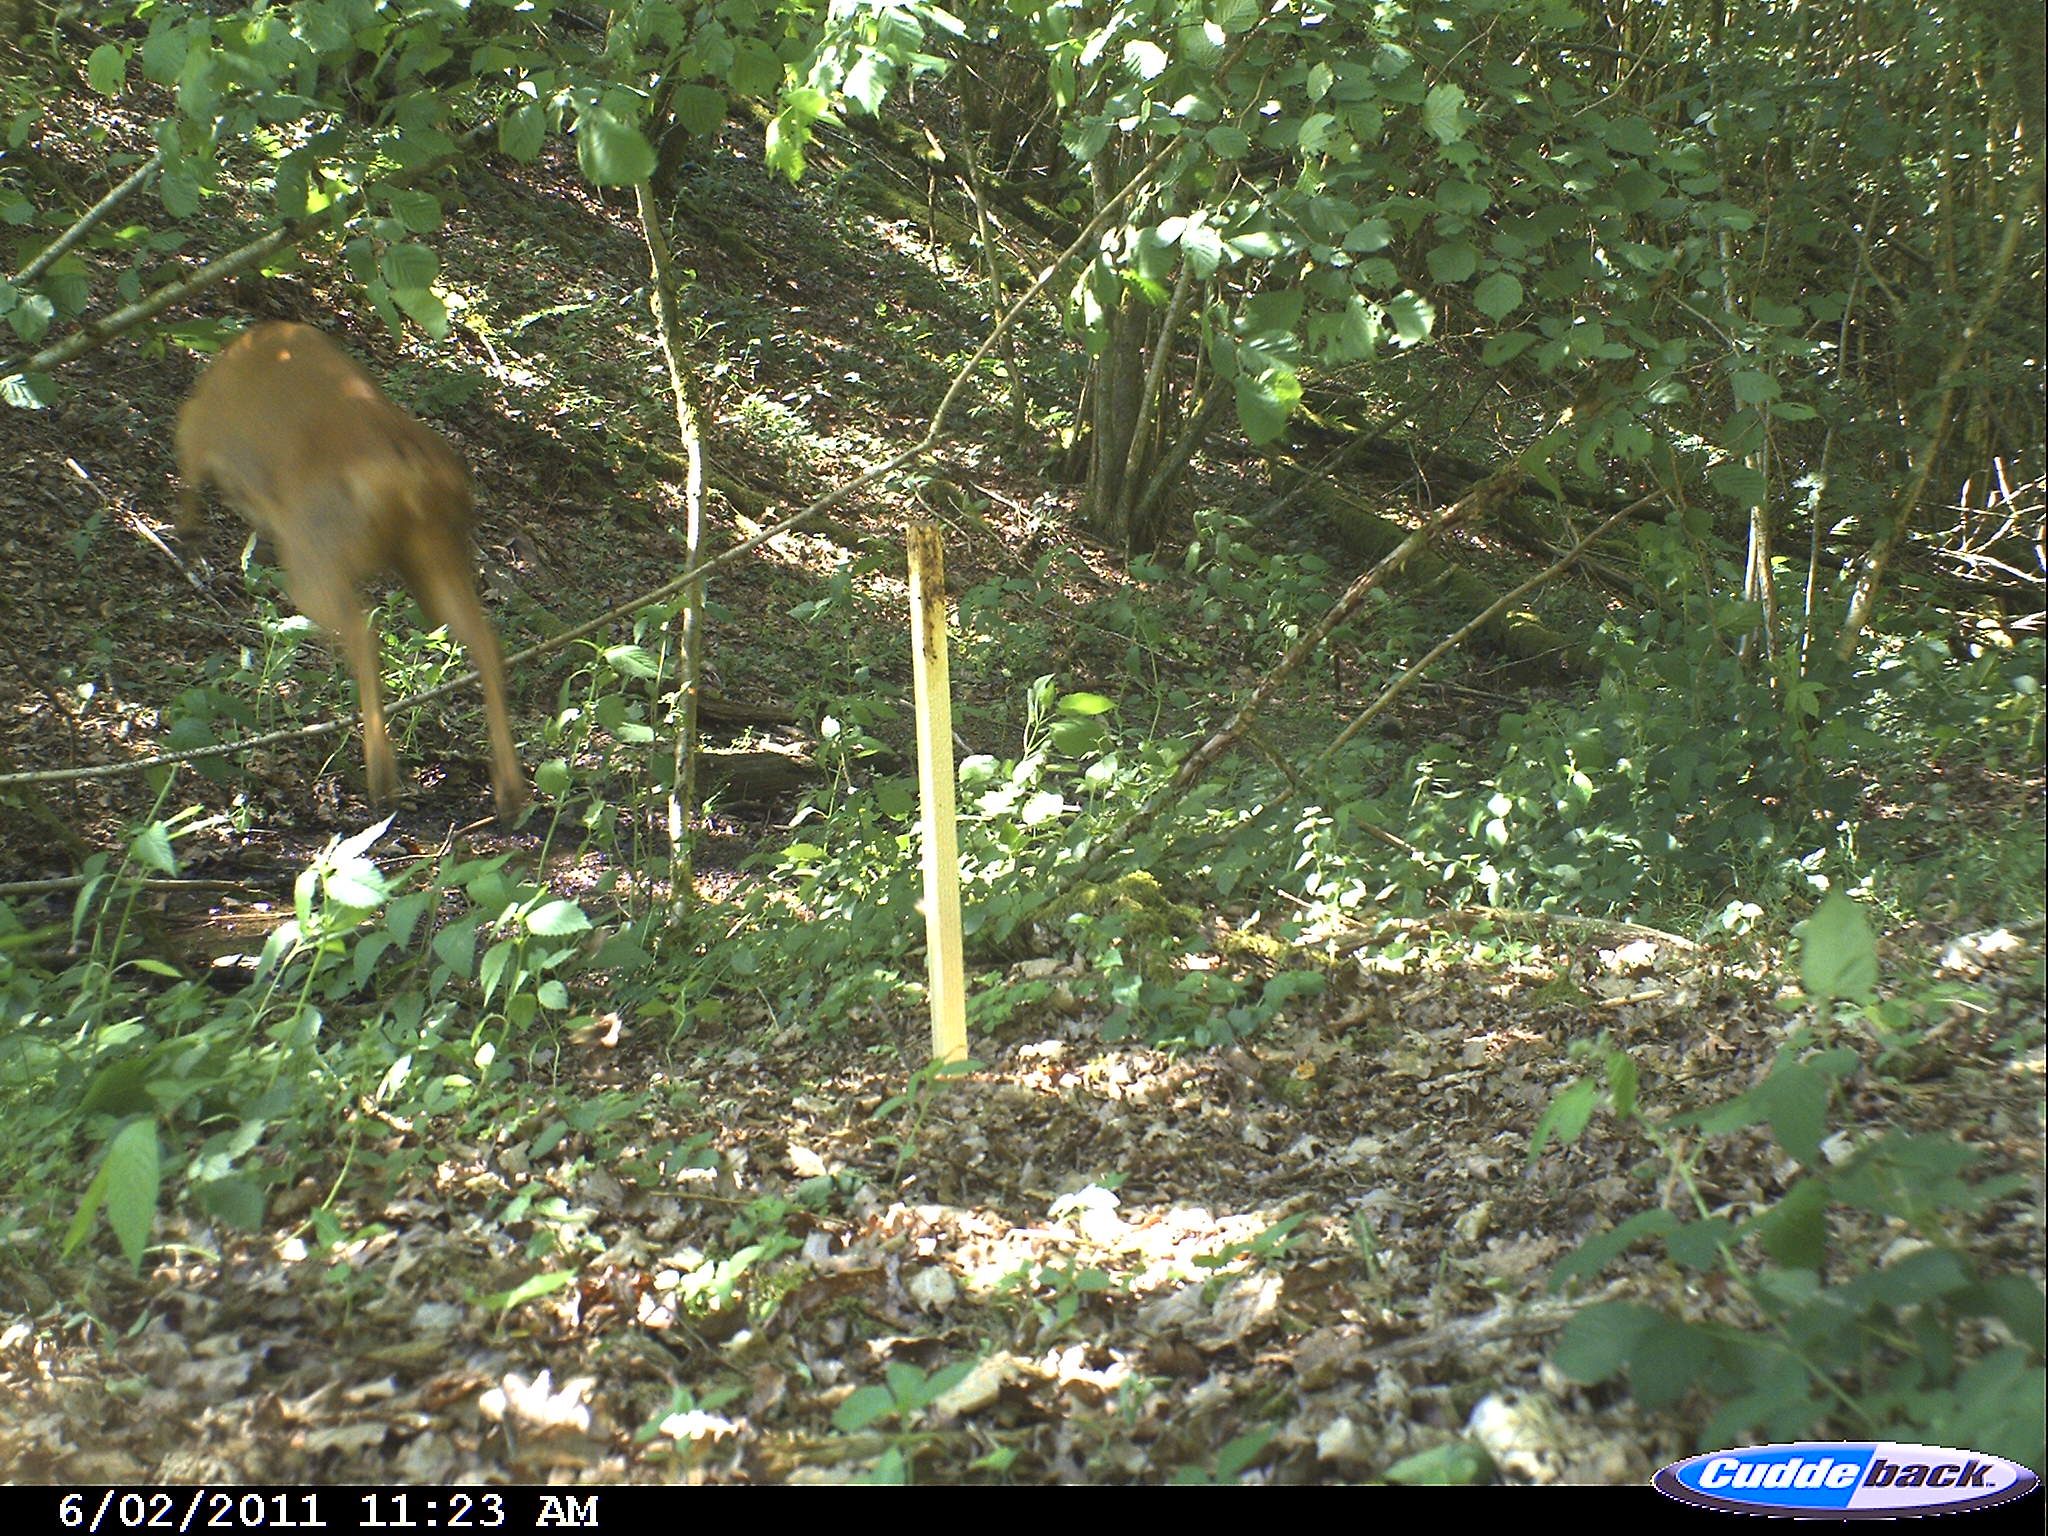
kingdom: Animalia
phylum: Chordata
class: Mammalia
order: Artiodactyla
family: Cervidae
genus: Capreolus
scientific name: Capreolus capreolus
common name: Western roe deer
